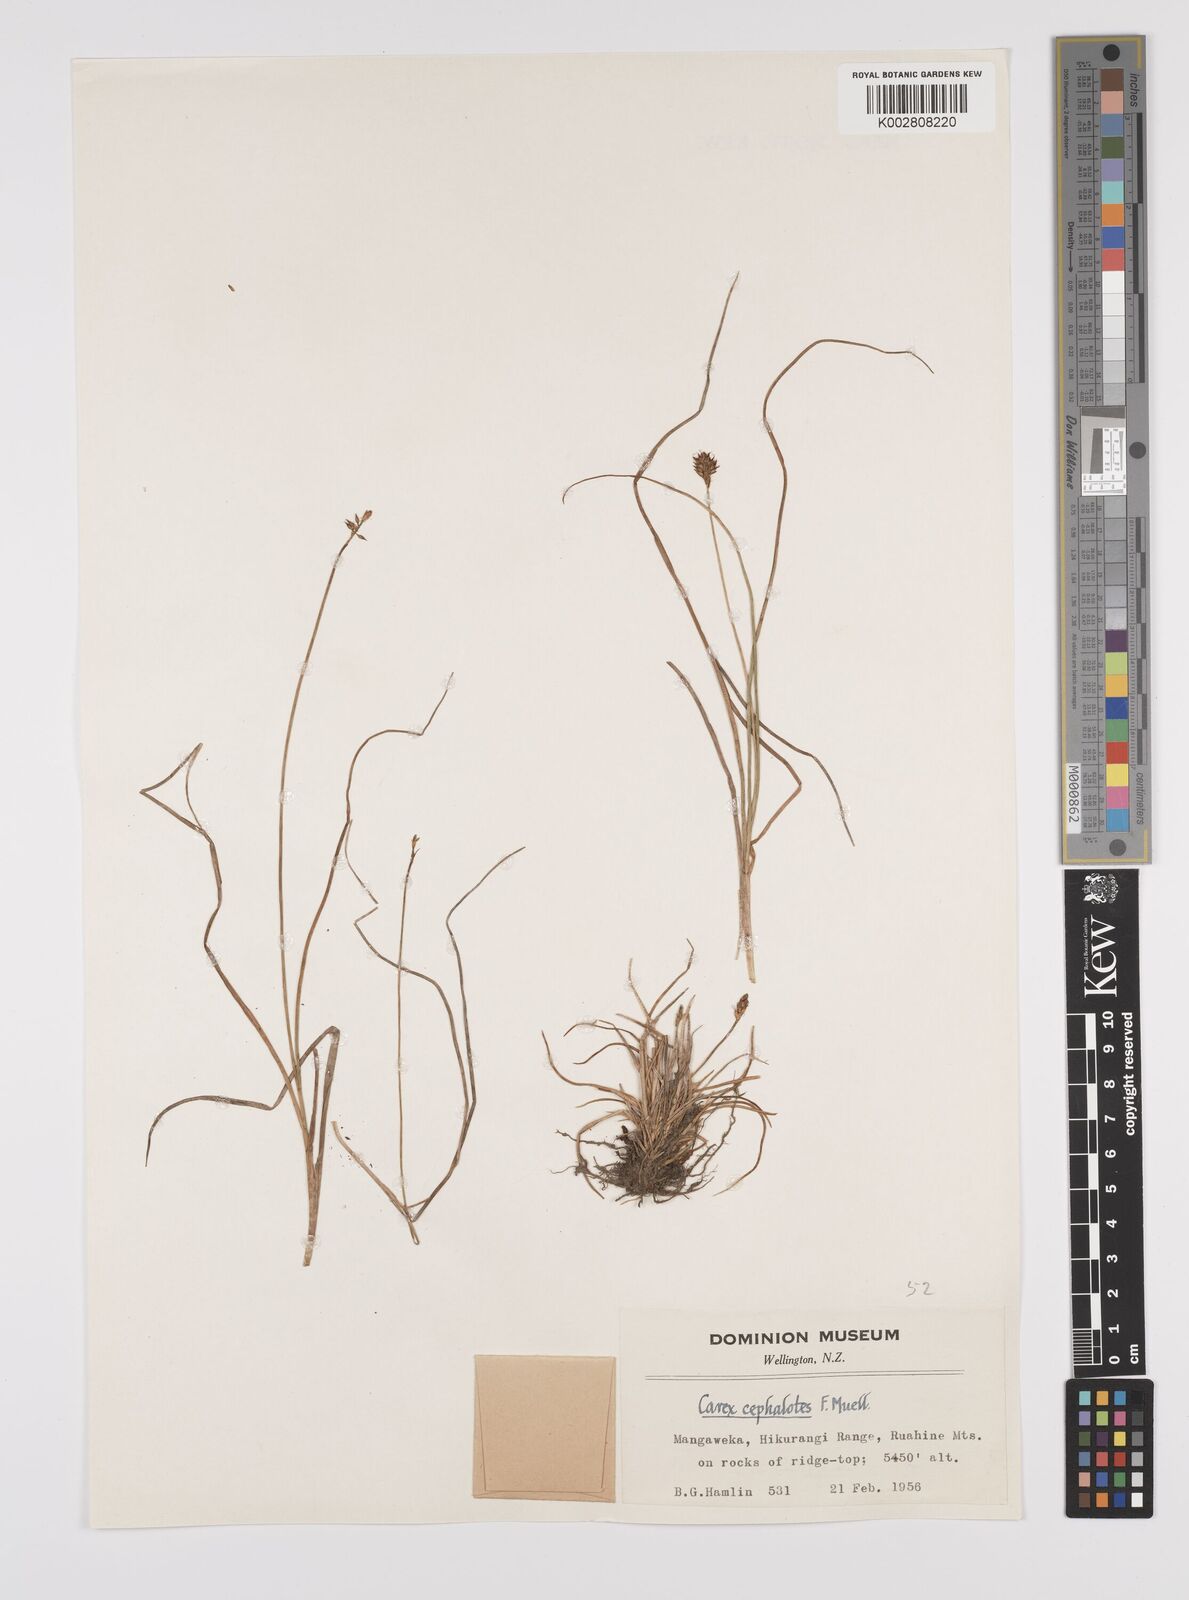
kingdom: Plantae
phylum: Tracheophyta
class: Liliopsida
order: Poales
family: Cyperaceae
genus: Carex
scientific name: Carex pyrenaica
